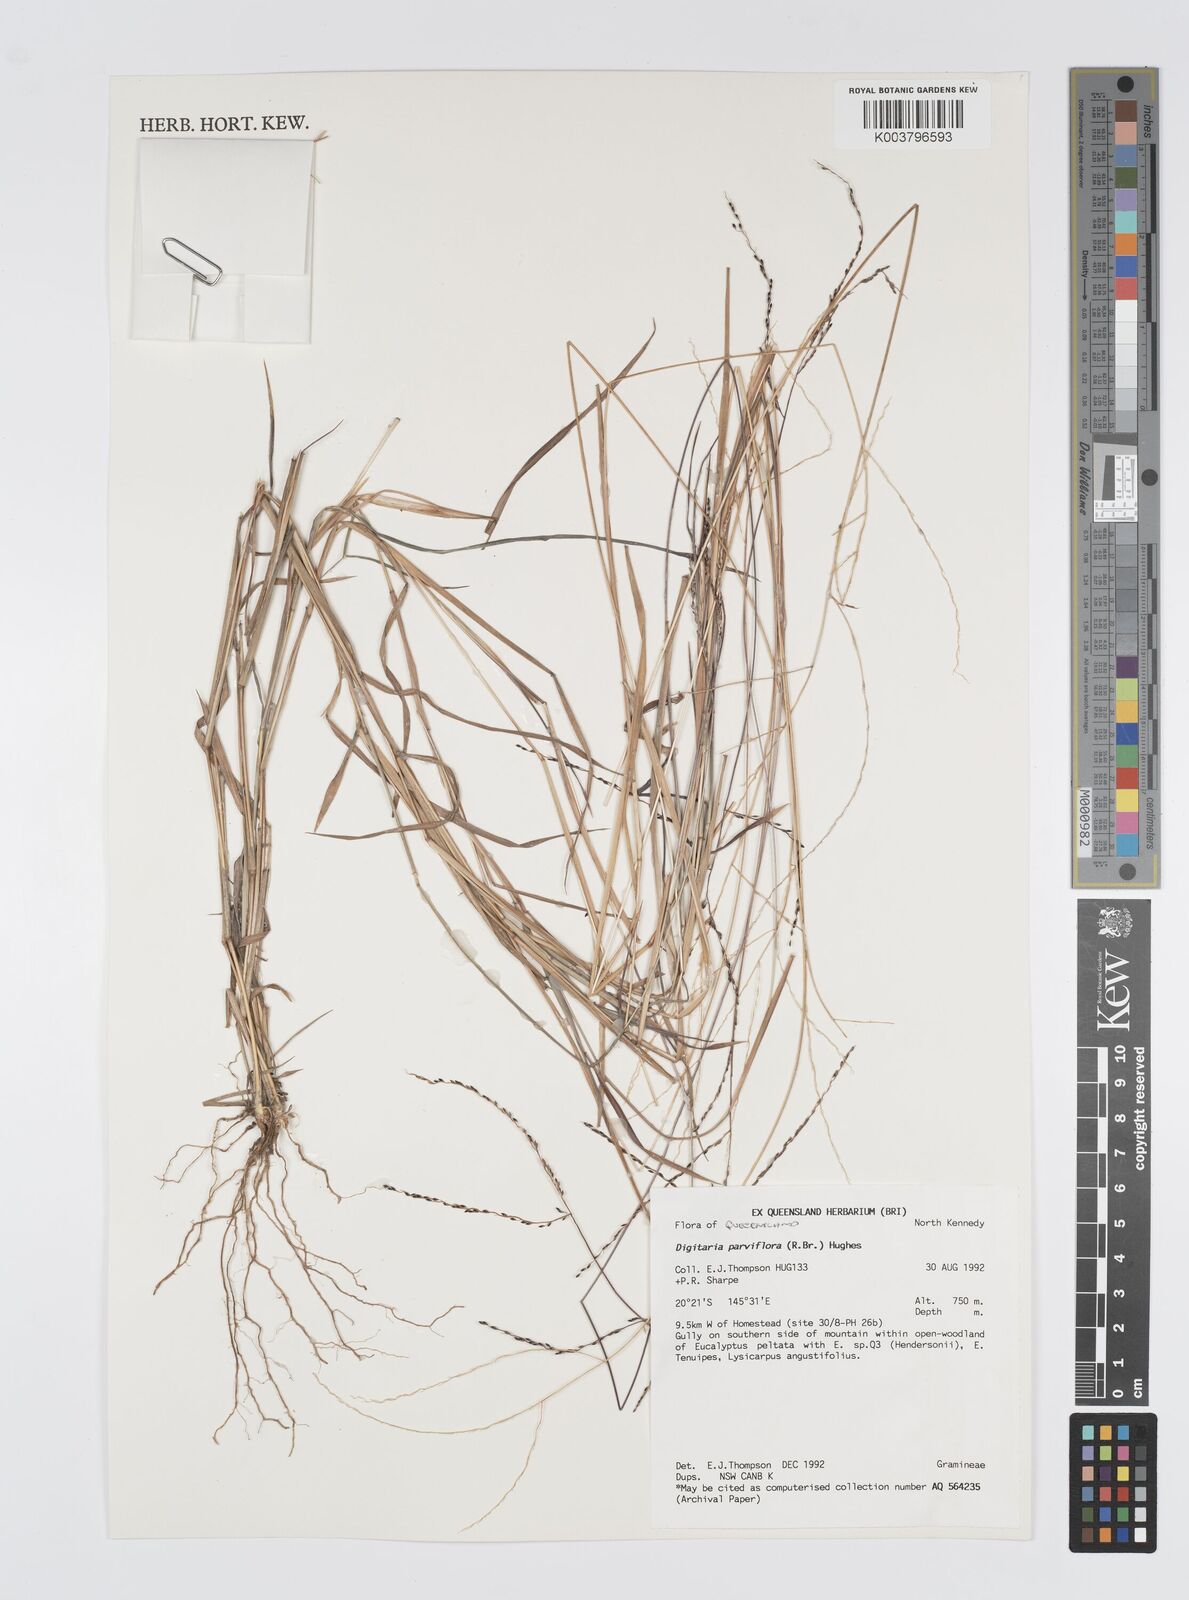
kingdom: Plantae
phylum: Tracheophyta
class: Liliopsida
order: Poales
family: Poaceae
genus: Digitaria
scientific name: Digitaria parviflora
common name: Small-flower finger grass
